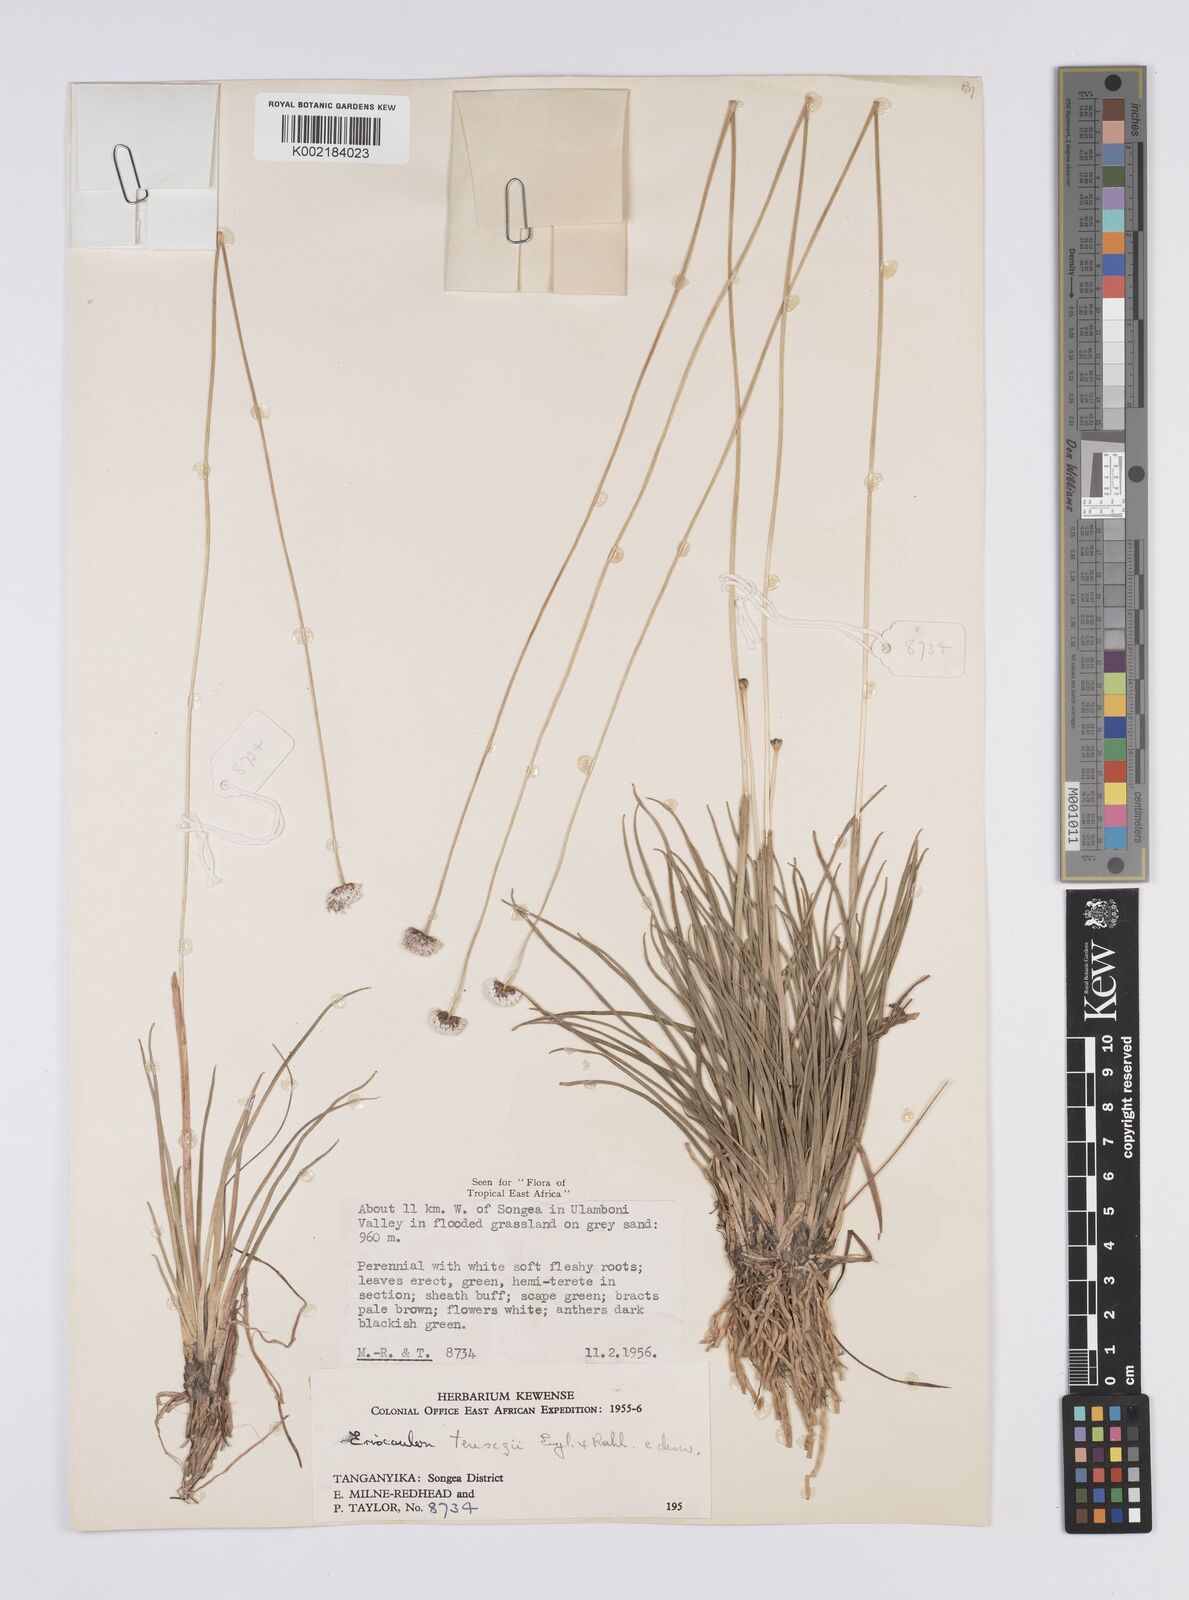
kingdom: Plantae
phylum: Tracheophyta
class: Liliopsida
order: Poales
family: Eriocaulaceae
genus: Eriocaulon
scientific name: Eriocaulon teusczii
